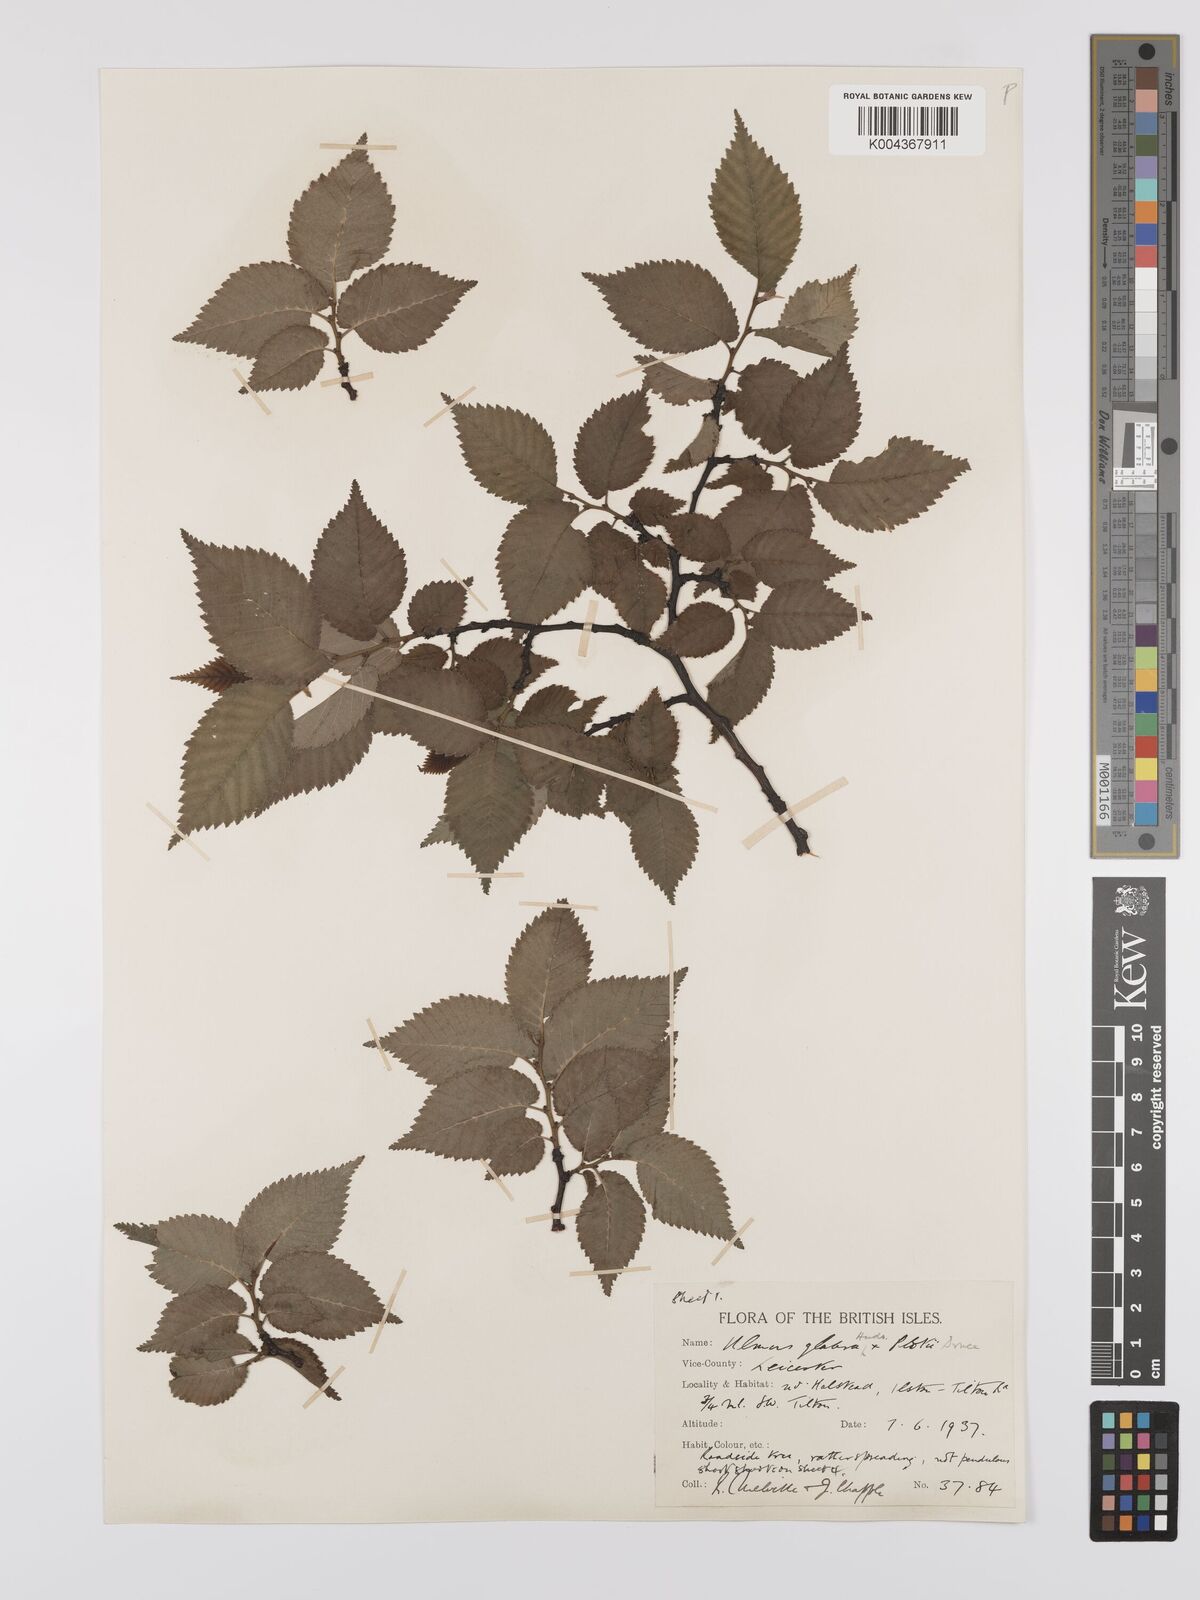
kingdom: Plantae
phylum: Tracheophyta
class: Magnoliopsida
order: Rosales
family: Ulmaceae
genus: Ulmus
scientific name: Ulmus
